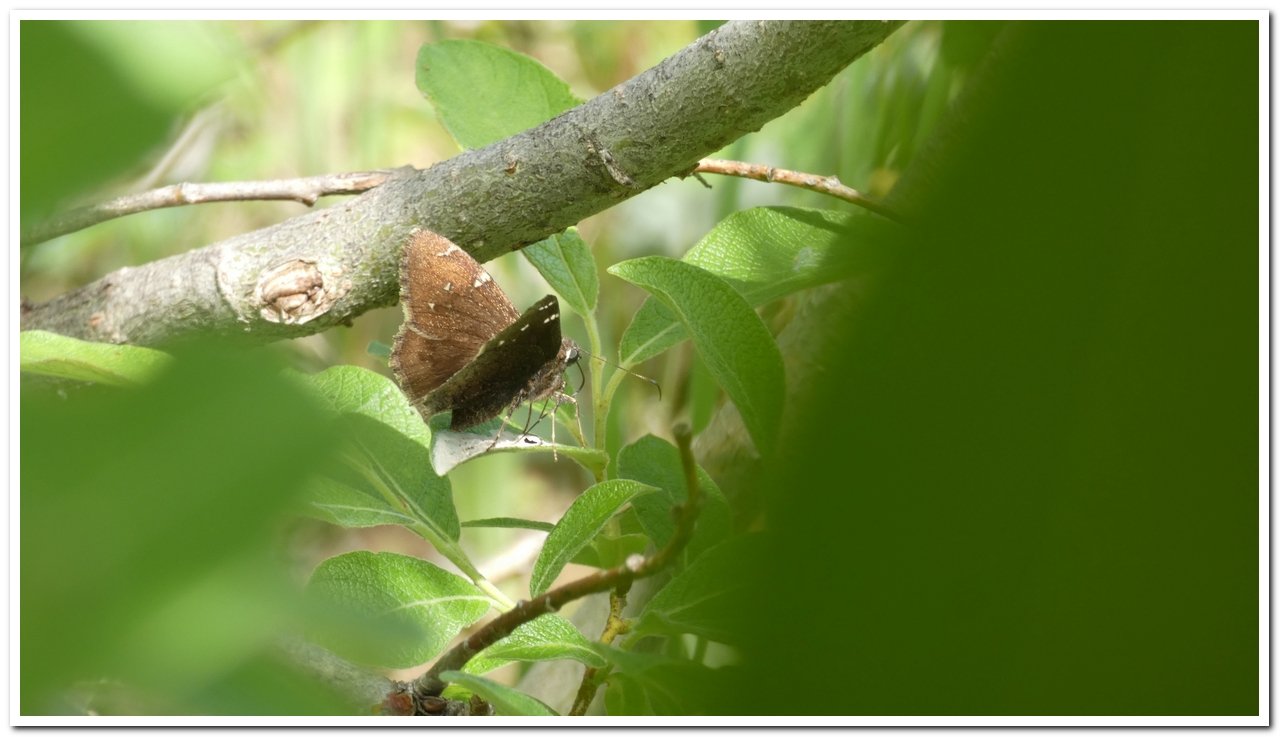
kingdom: Animalia
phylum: Arthropoda
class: Insecta
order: Lepidoptera
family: Hesperiidae
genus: Autochton
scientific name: Autochton
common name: Northern Cloudywing
